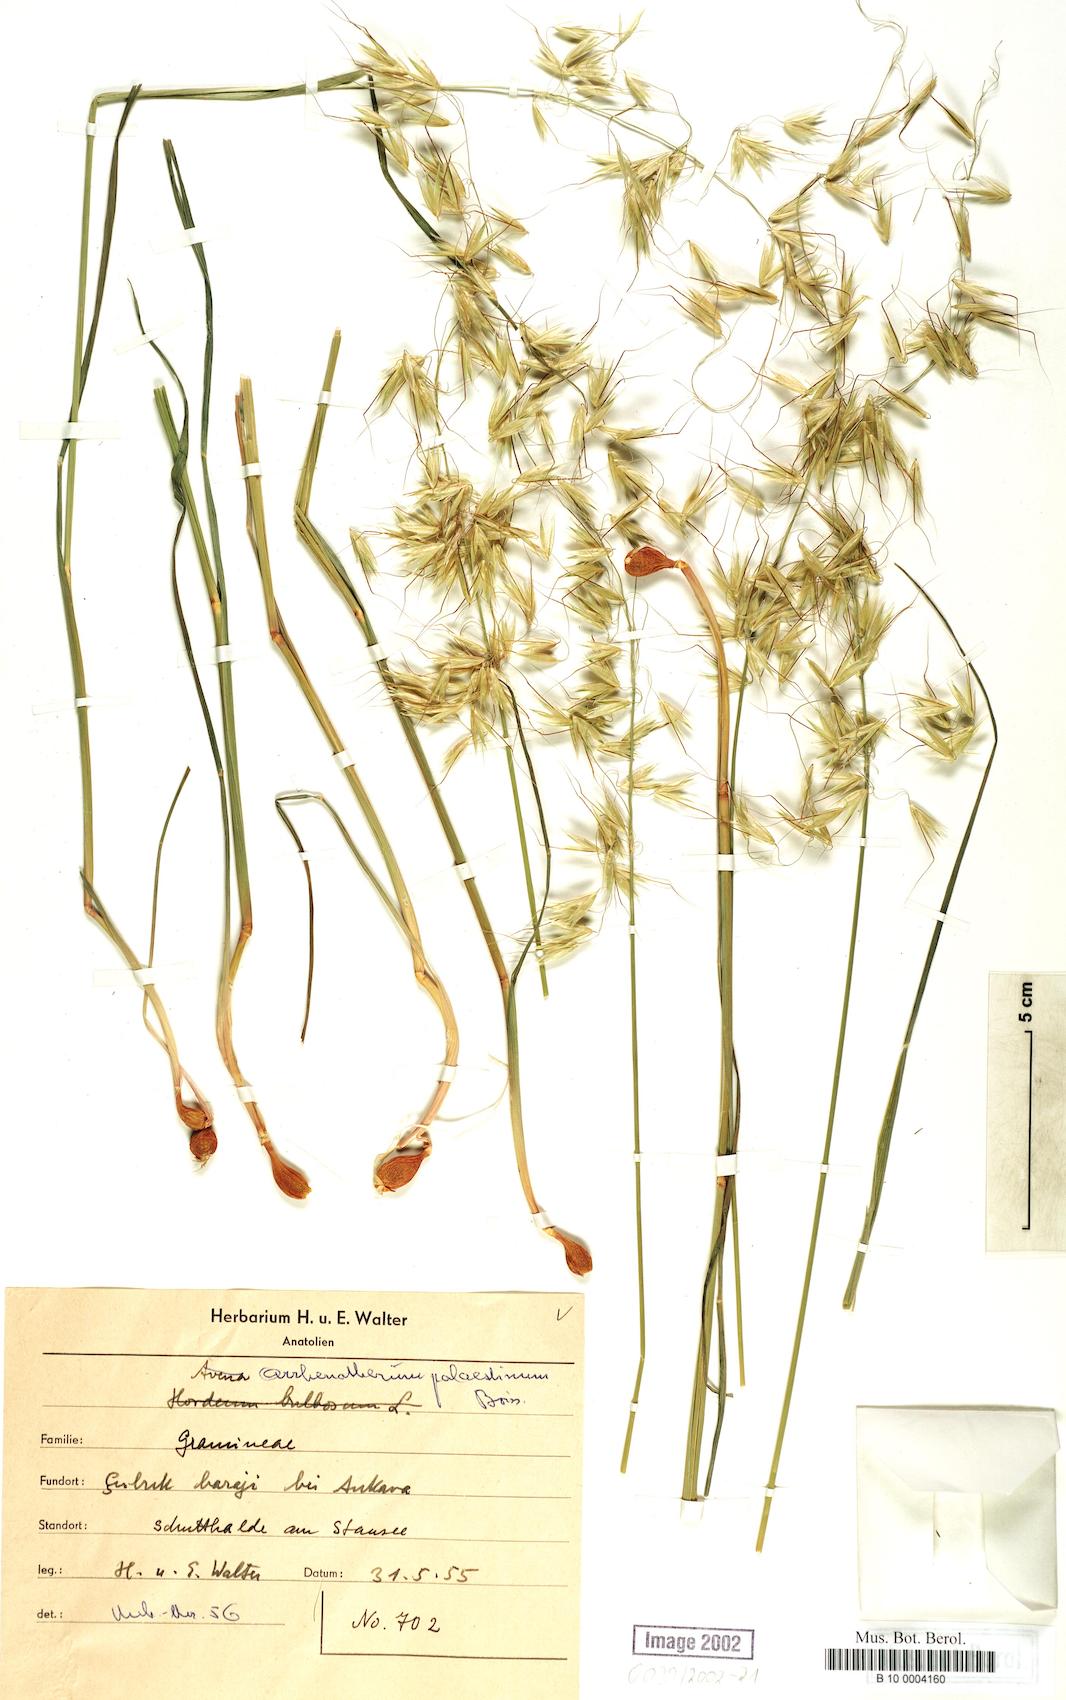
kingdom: Plantae
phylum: Tracheophyta
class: Liliopsida
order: Poales
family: Poaceae
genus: Arrhenatherum
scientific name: Arrhenatherum palaestinum
